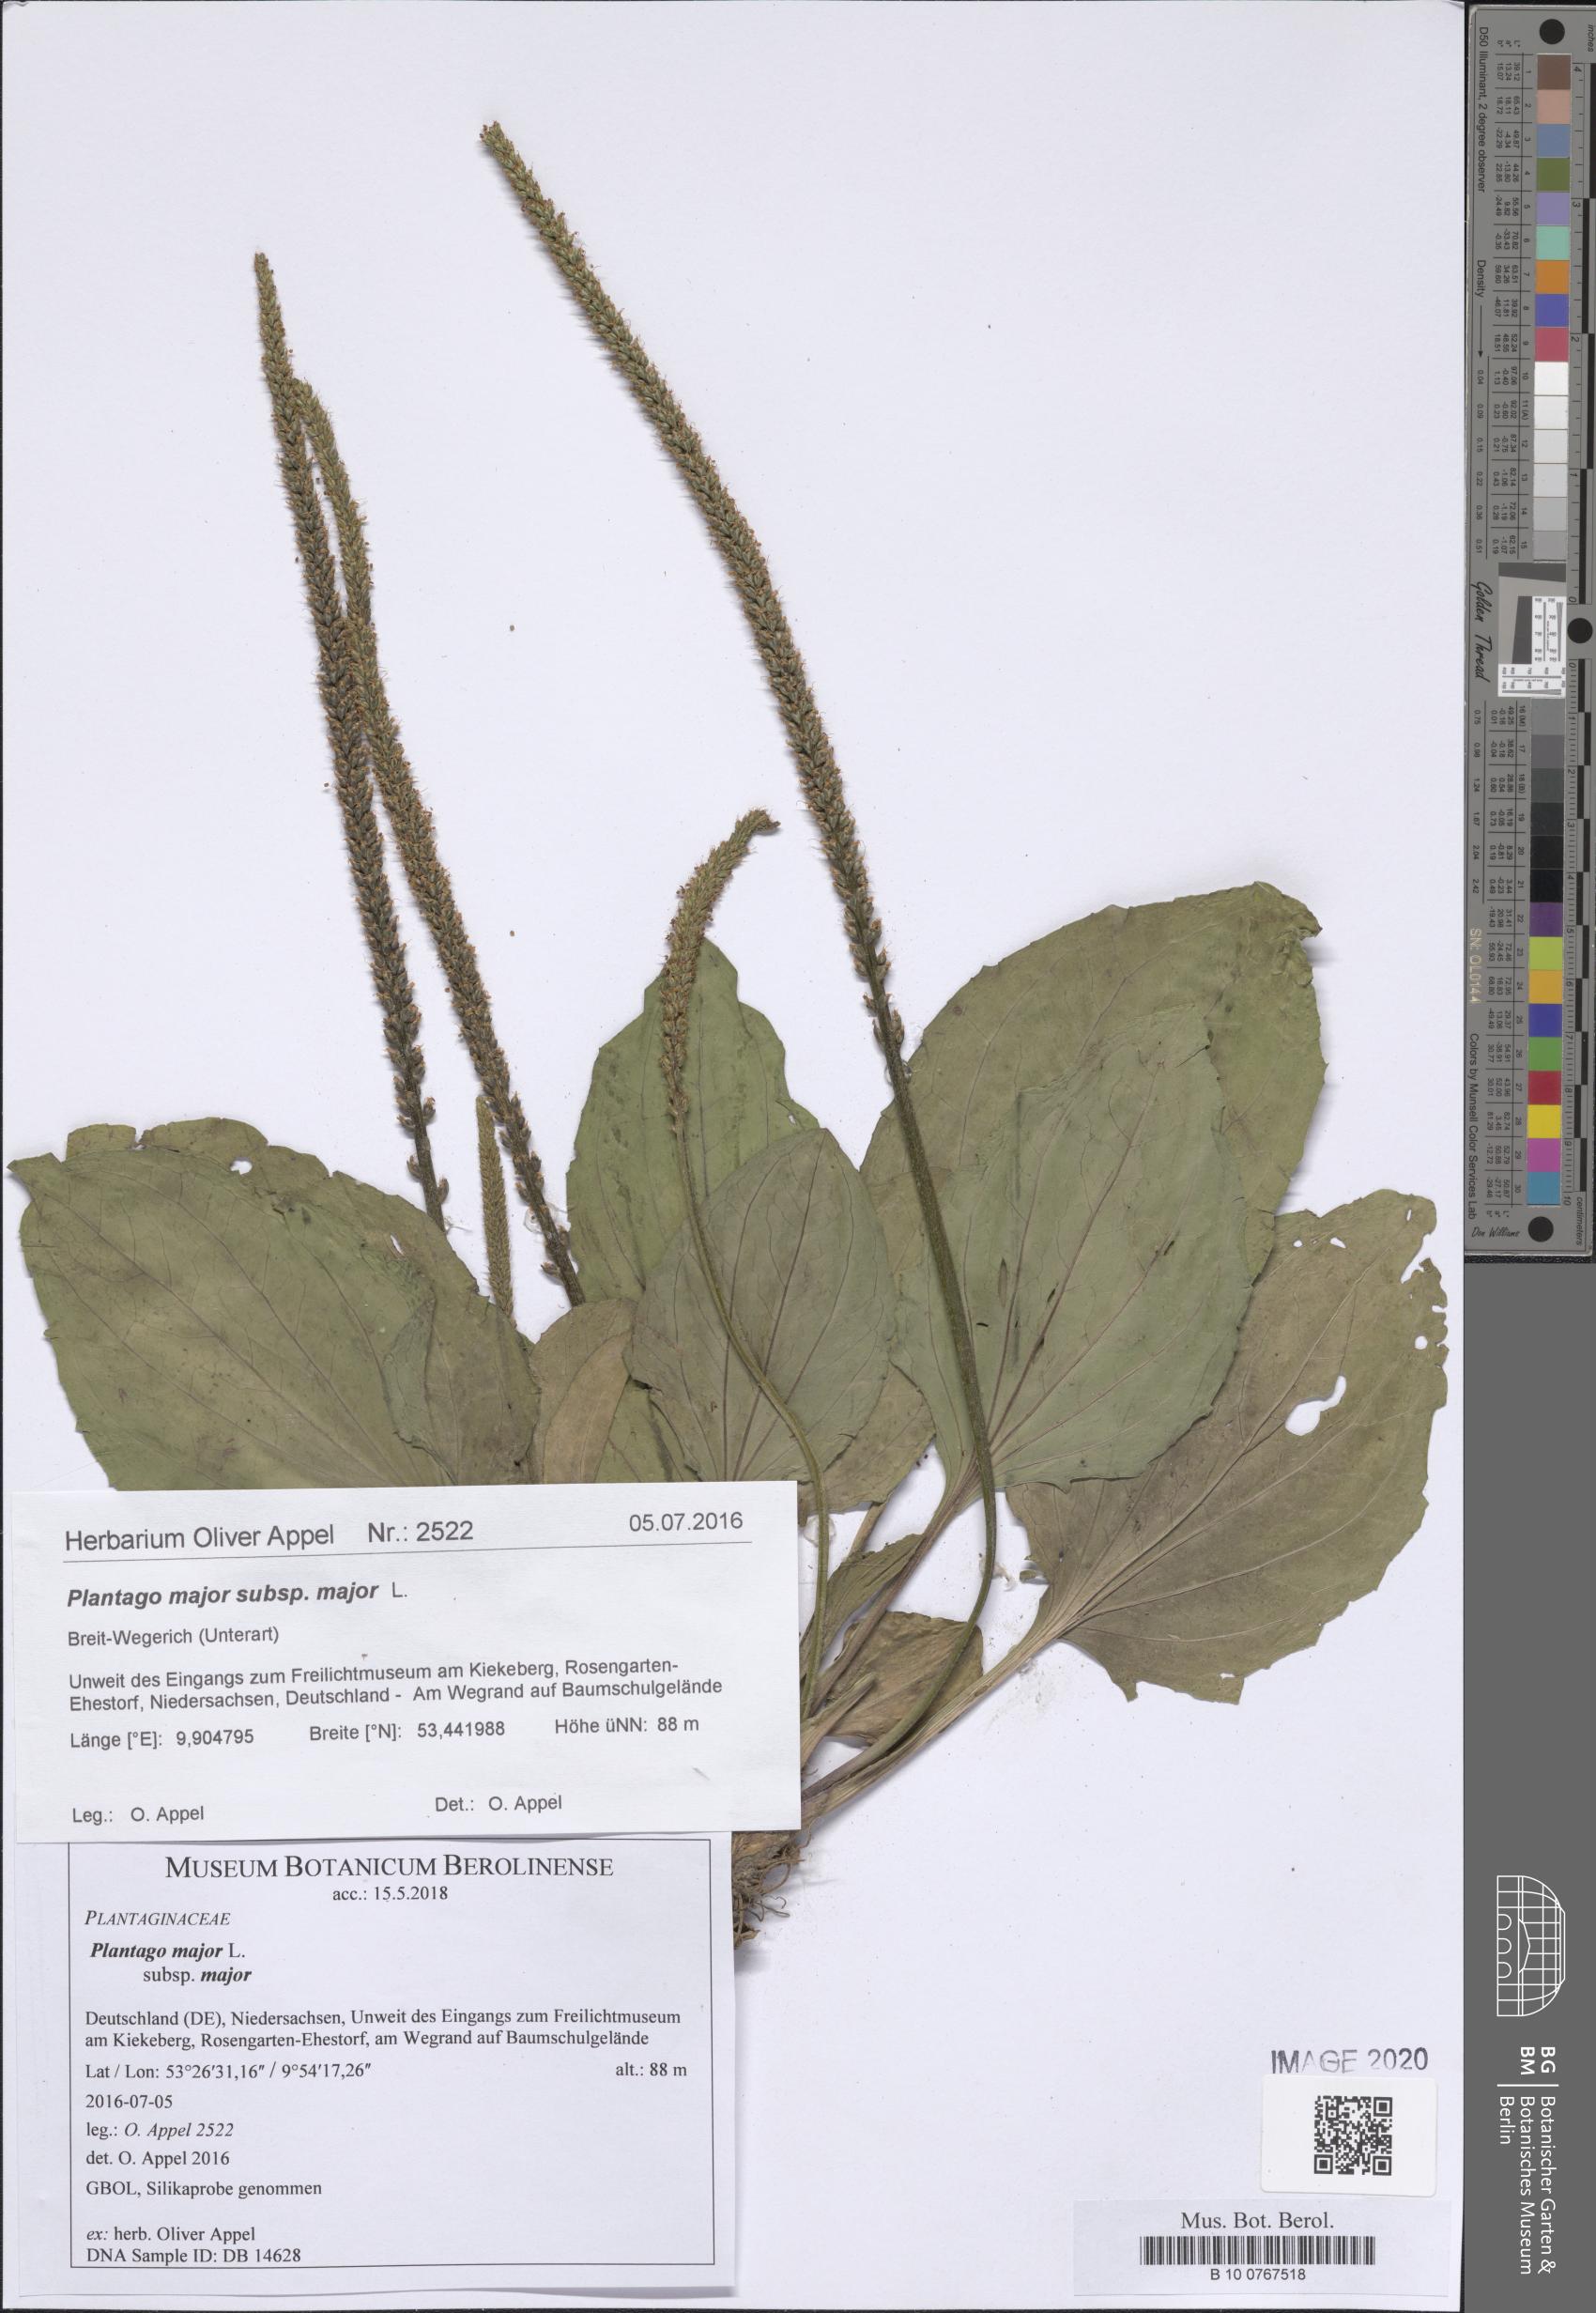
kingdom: Plantae
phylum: Tracheophyta
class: Magnoliopsida
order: Lamiales
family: Plantaginaceae
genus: Plantago
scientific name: Plantago major
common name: Common plantain
